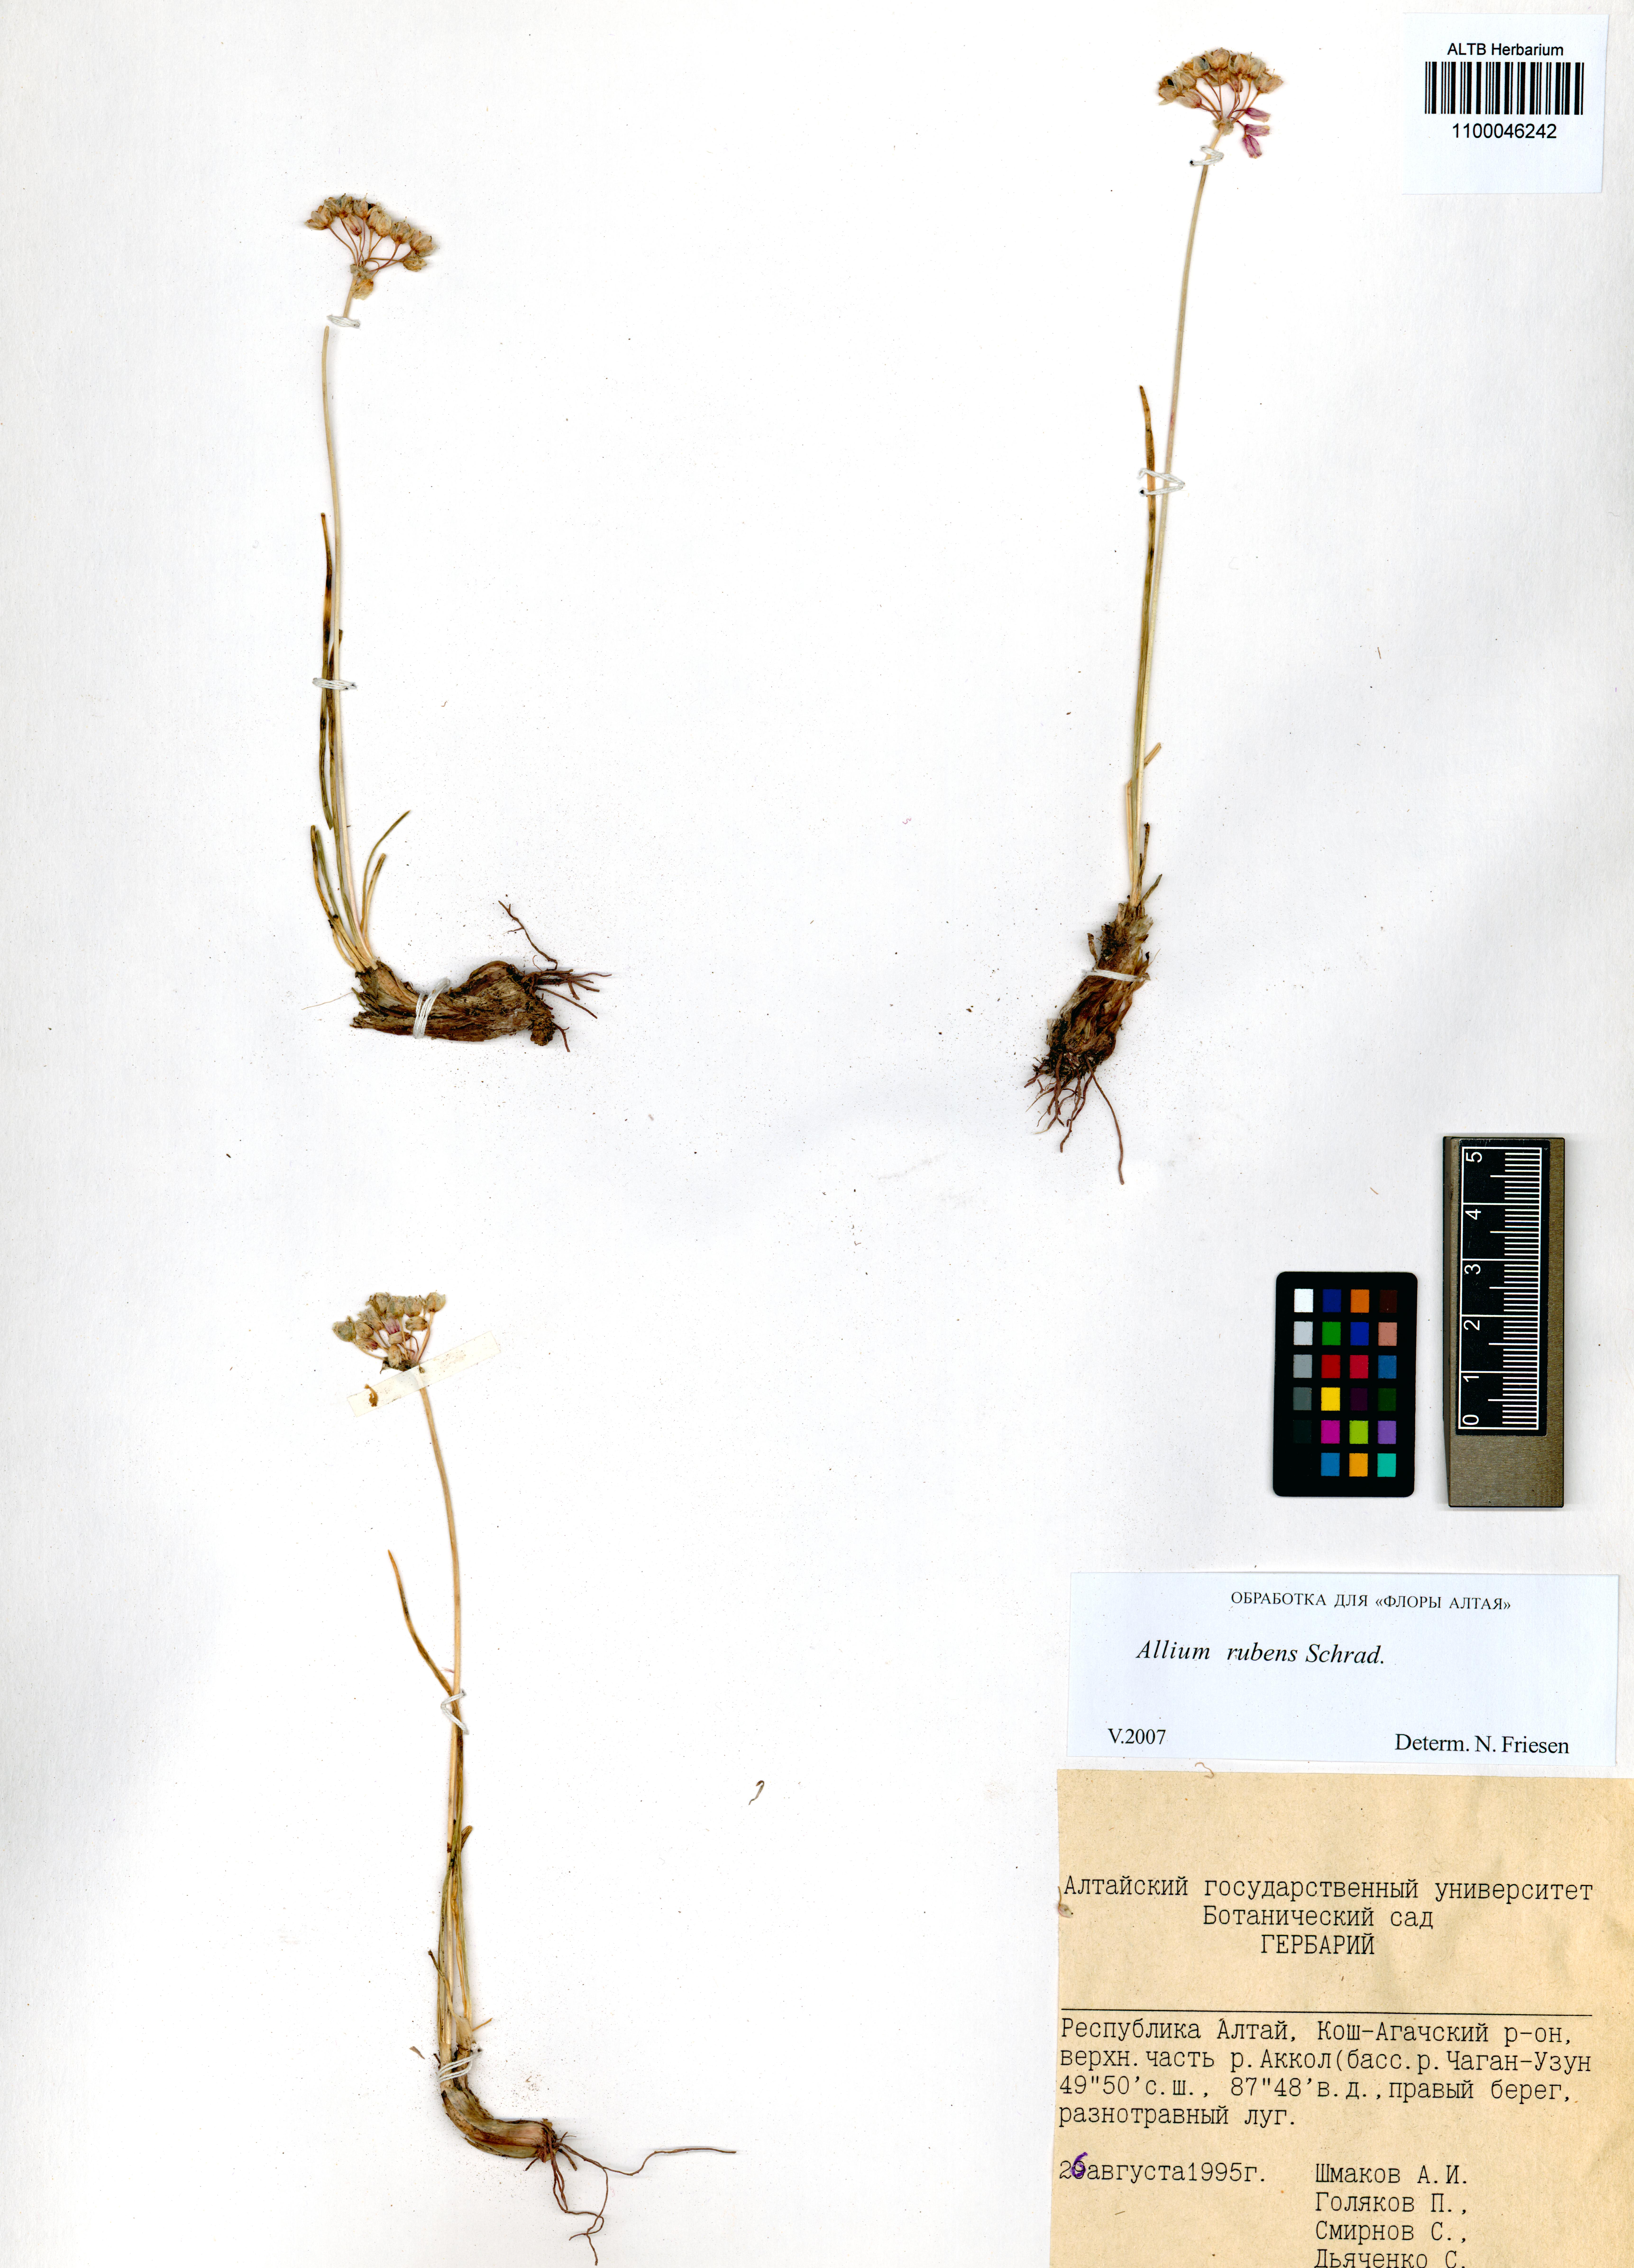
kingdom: Plantae
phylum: Tracheophyta
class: Liliopsida
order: Asparagales
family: Amaryllidaceae
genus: Allium
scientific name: Allium rubens
